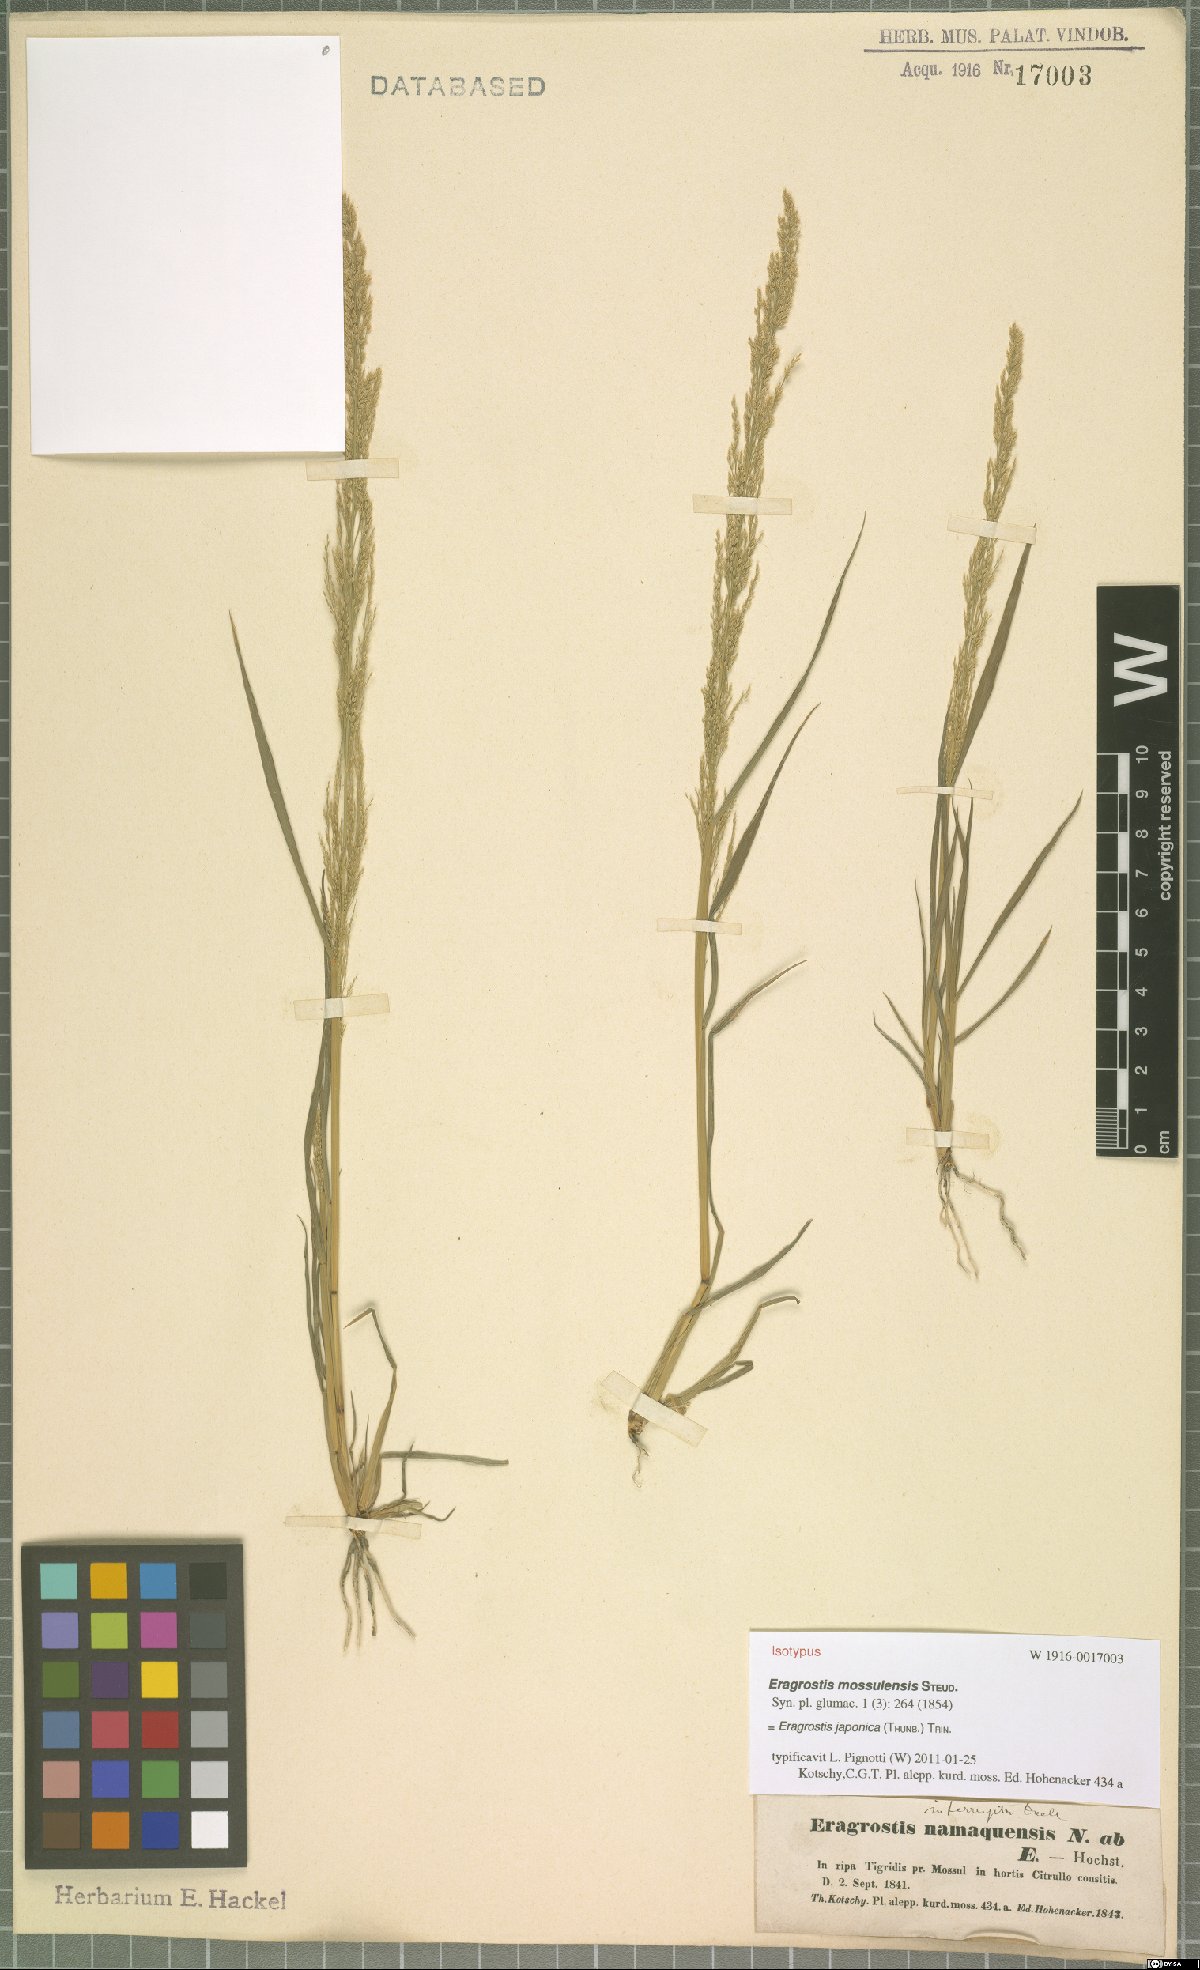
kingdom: Plantae
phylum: Tracheophyta
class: Liliopsida
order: Poales
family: Poaceae
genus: Eragrostis
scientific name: Eragrostis japonica
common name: Pond lovegrass
